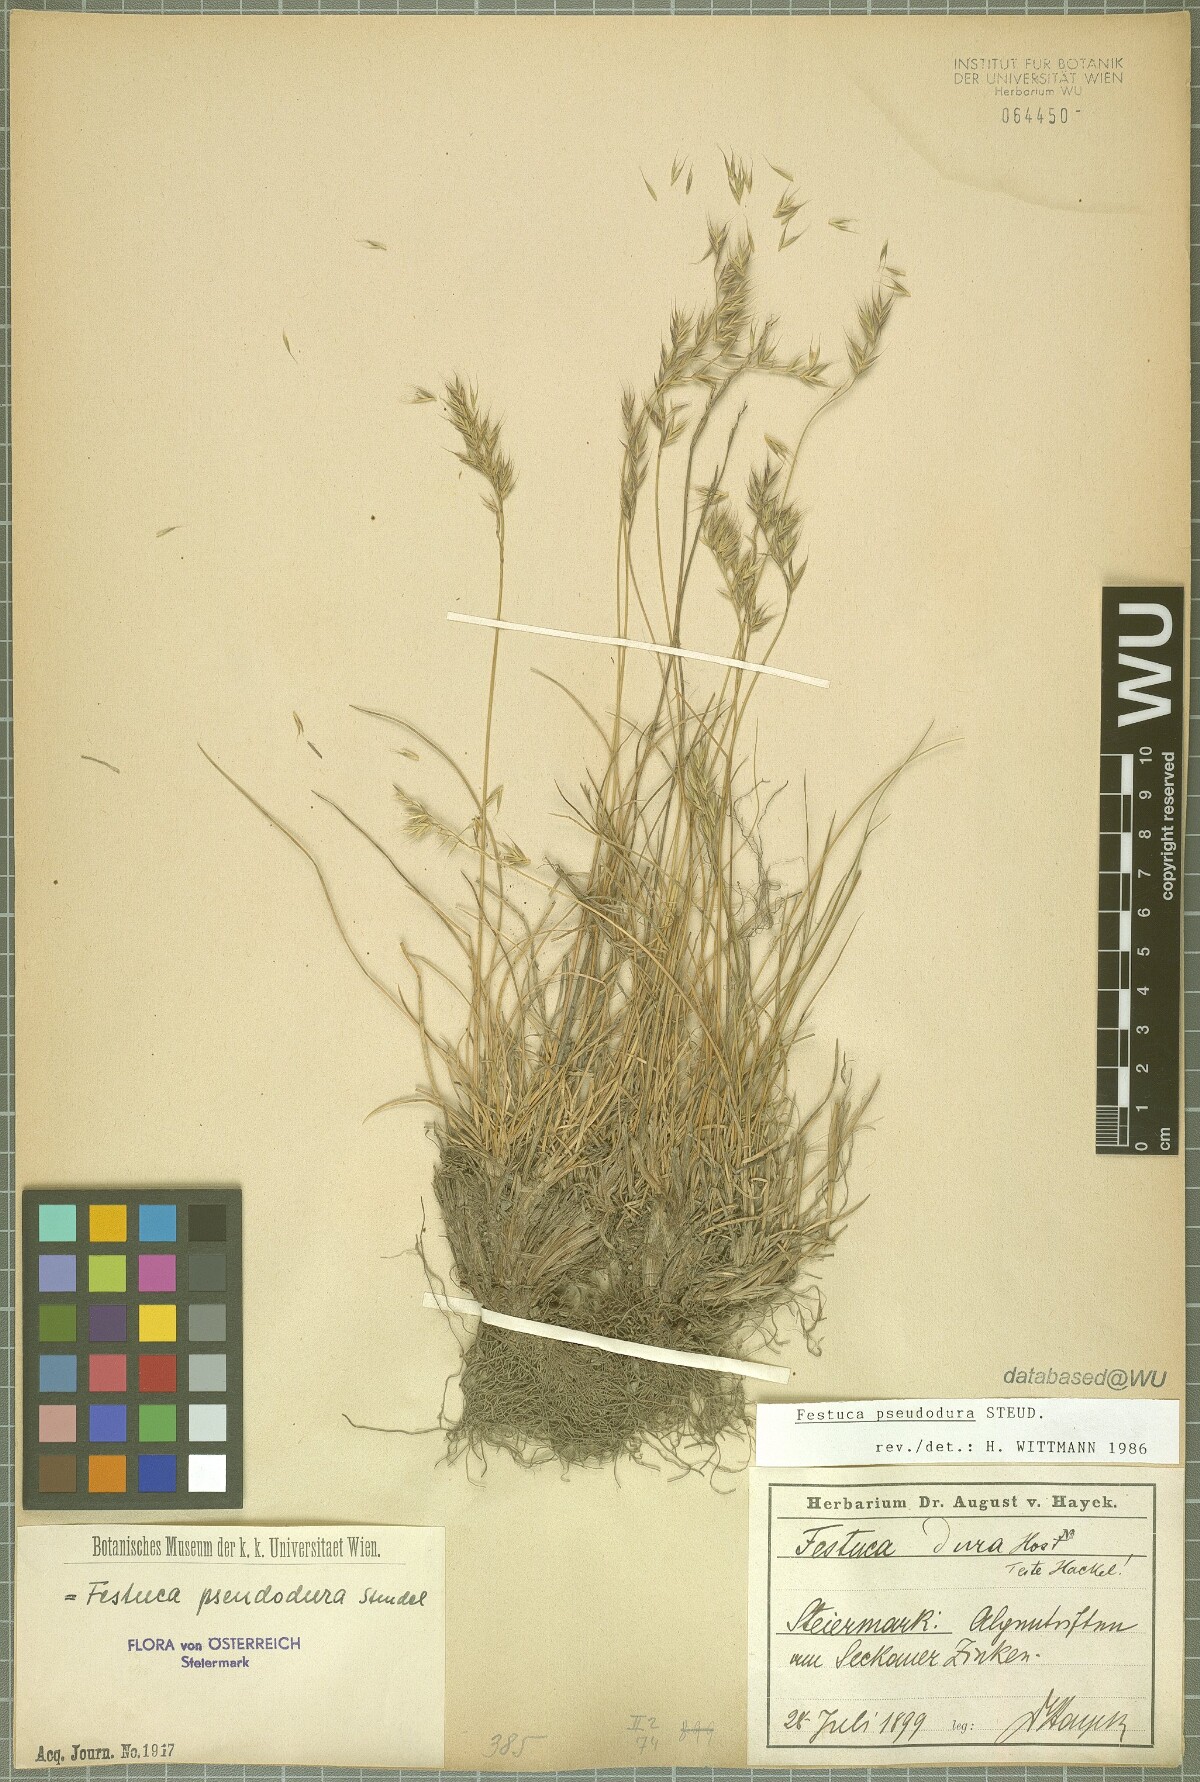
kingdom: Plantae
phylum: Tracheophyta
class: Liliopsida
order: Poales
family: Poaceae
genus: Festuca
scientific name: Festuca pseudodura
